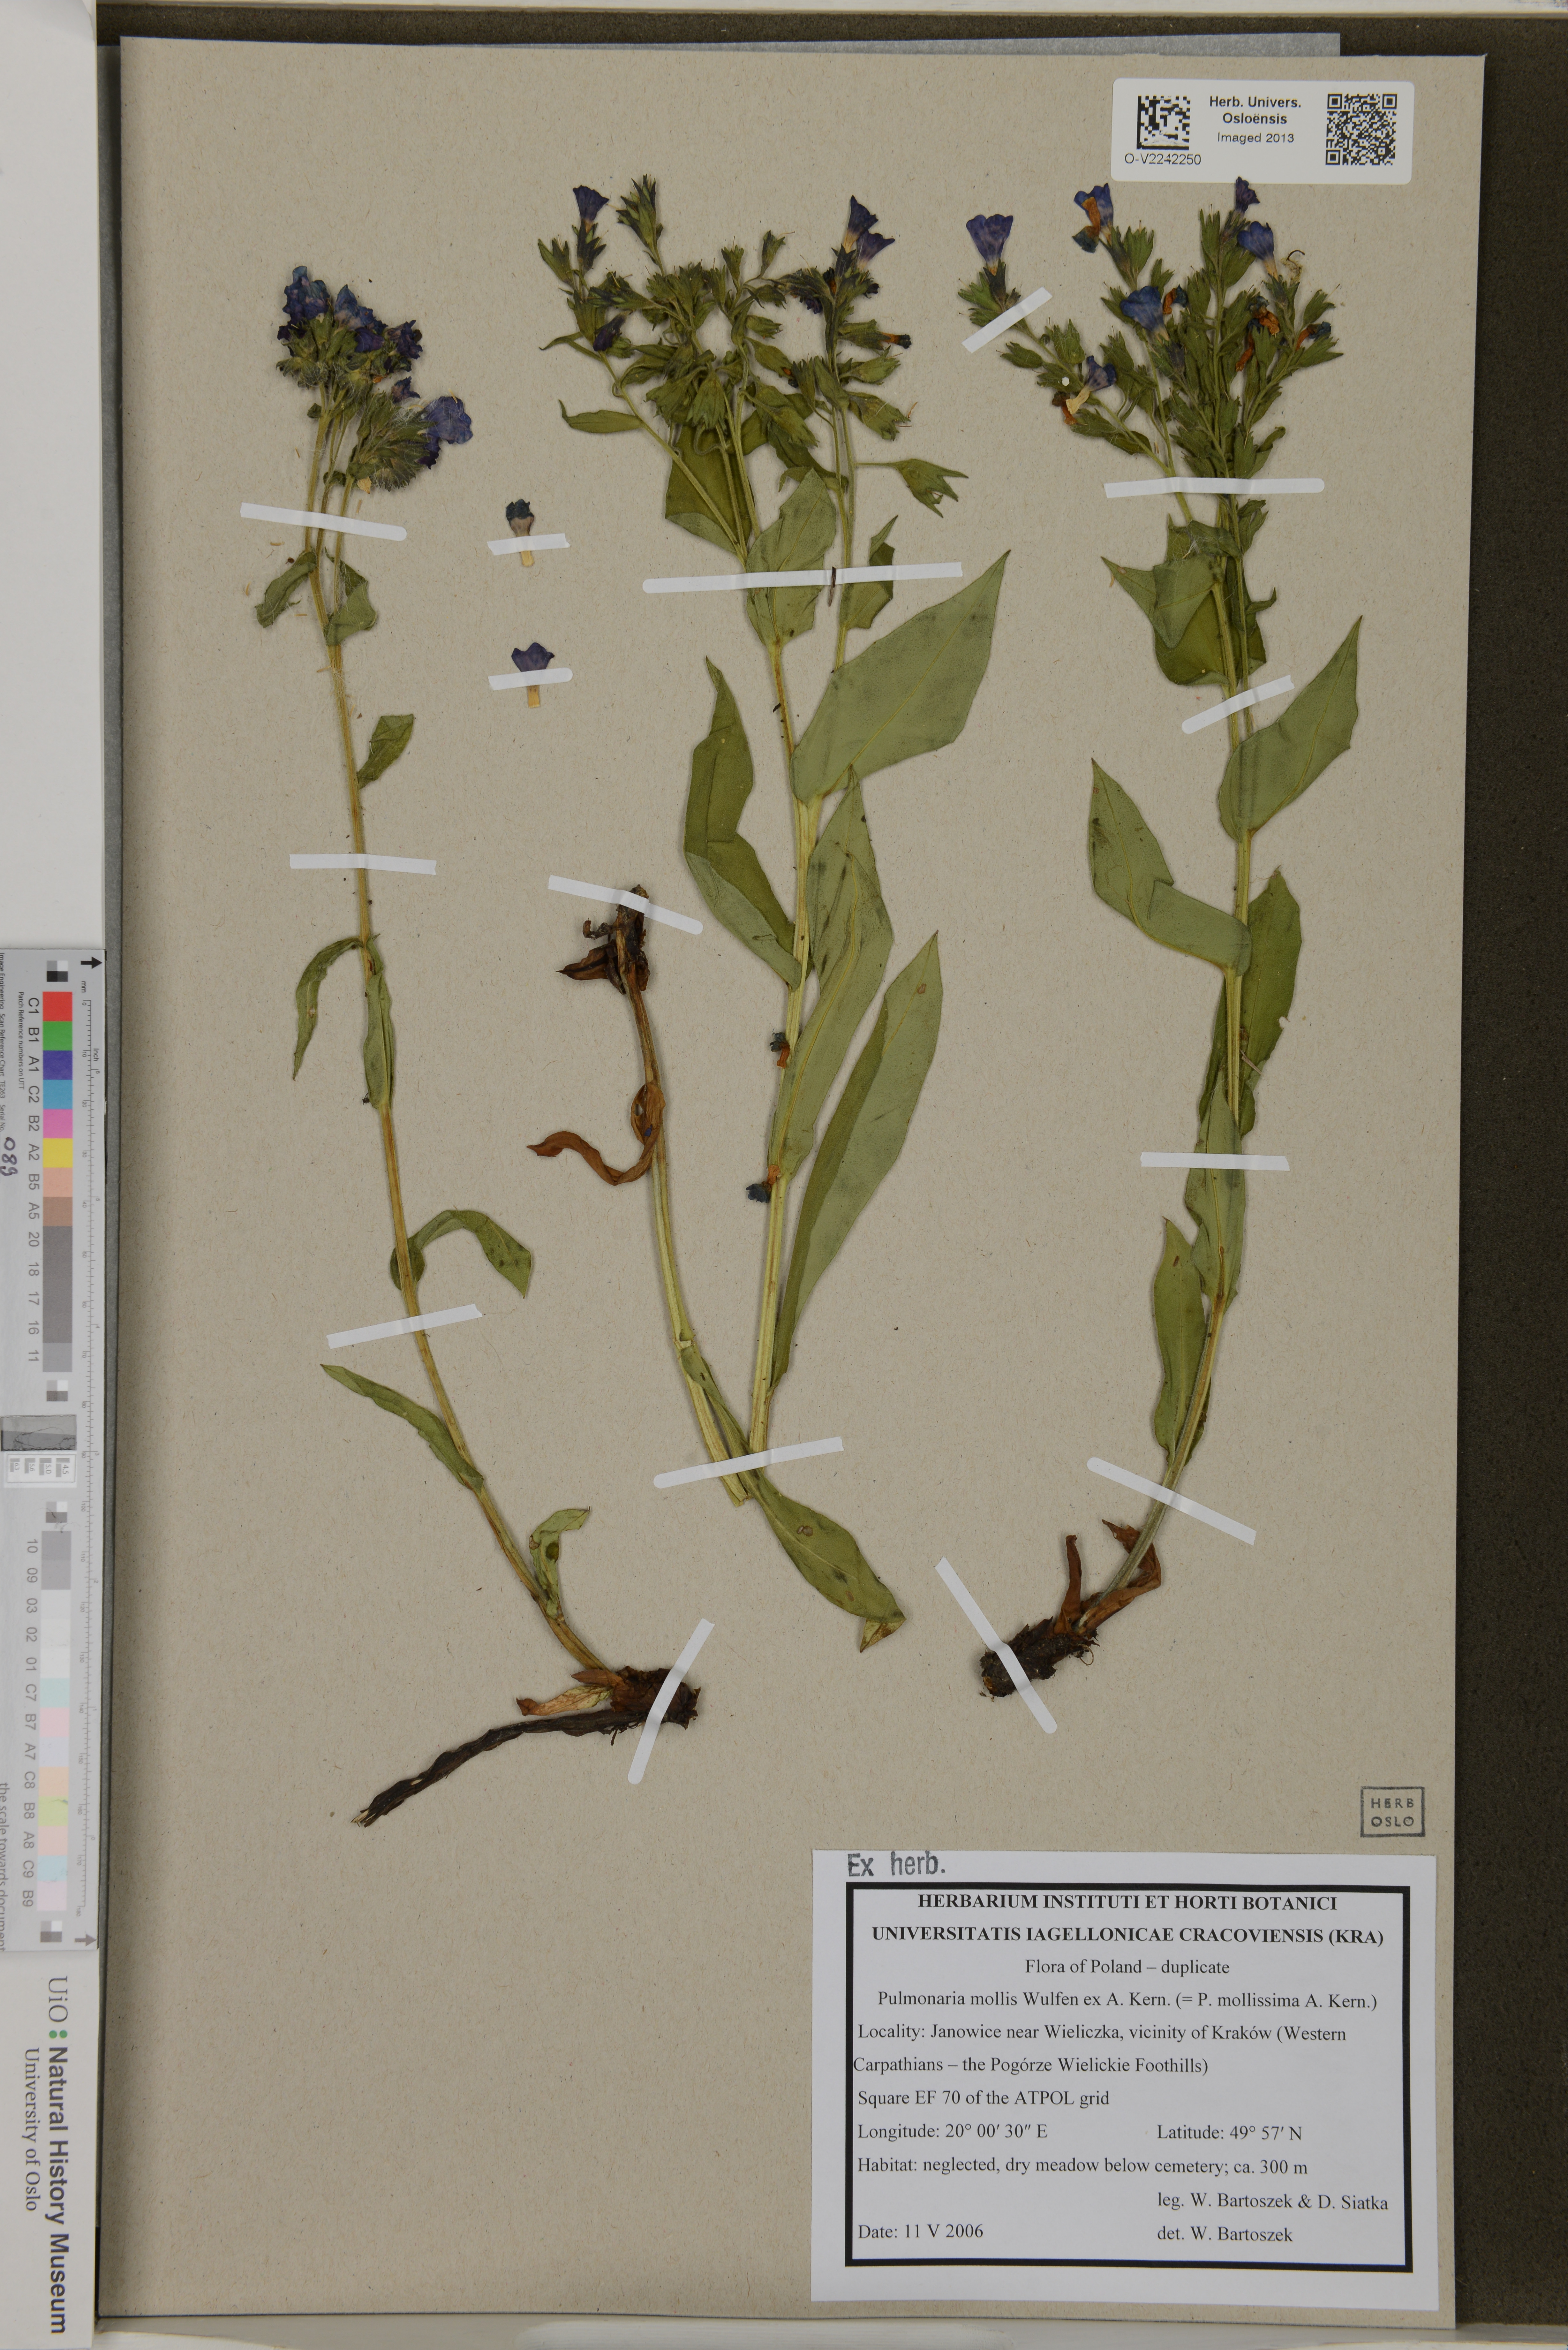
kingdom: Plantae
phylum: Tracheophyta
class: Magnoliopsida
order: Boraginales
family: Boraginaceae
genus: Pulmonaria
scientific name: Pulmonaria mollis
